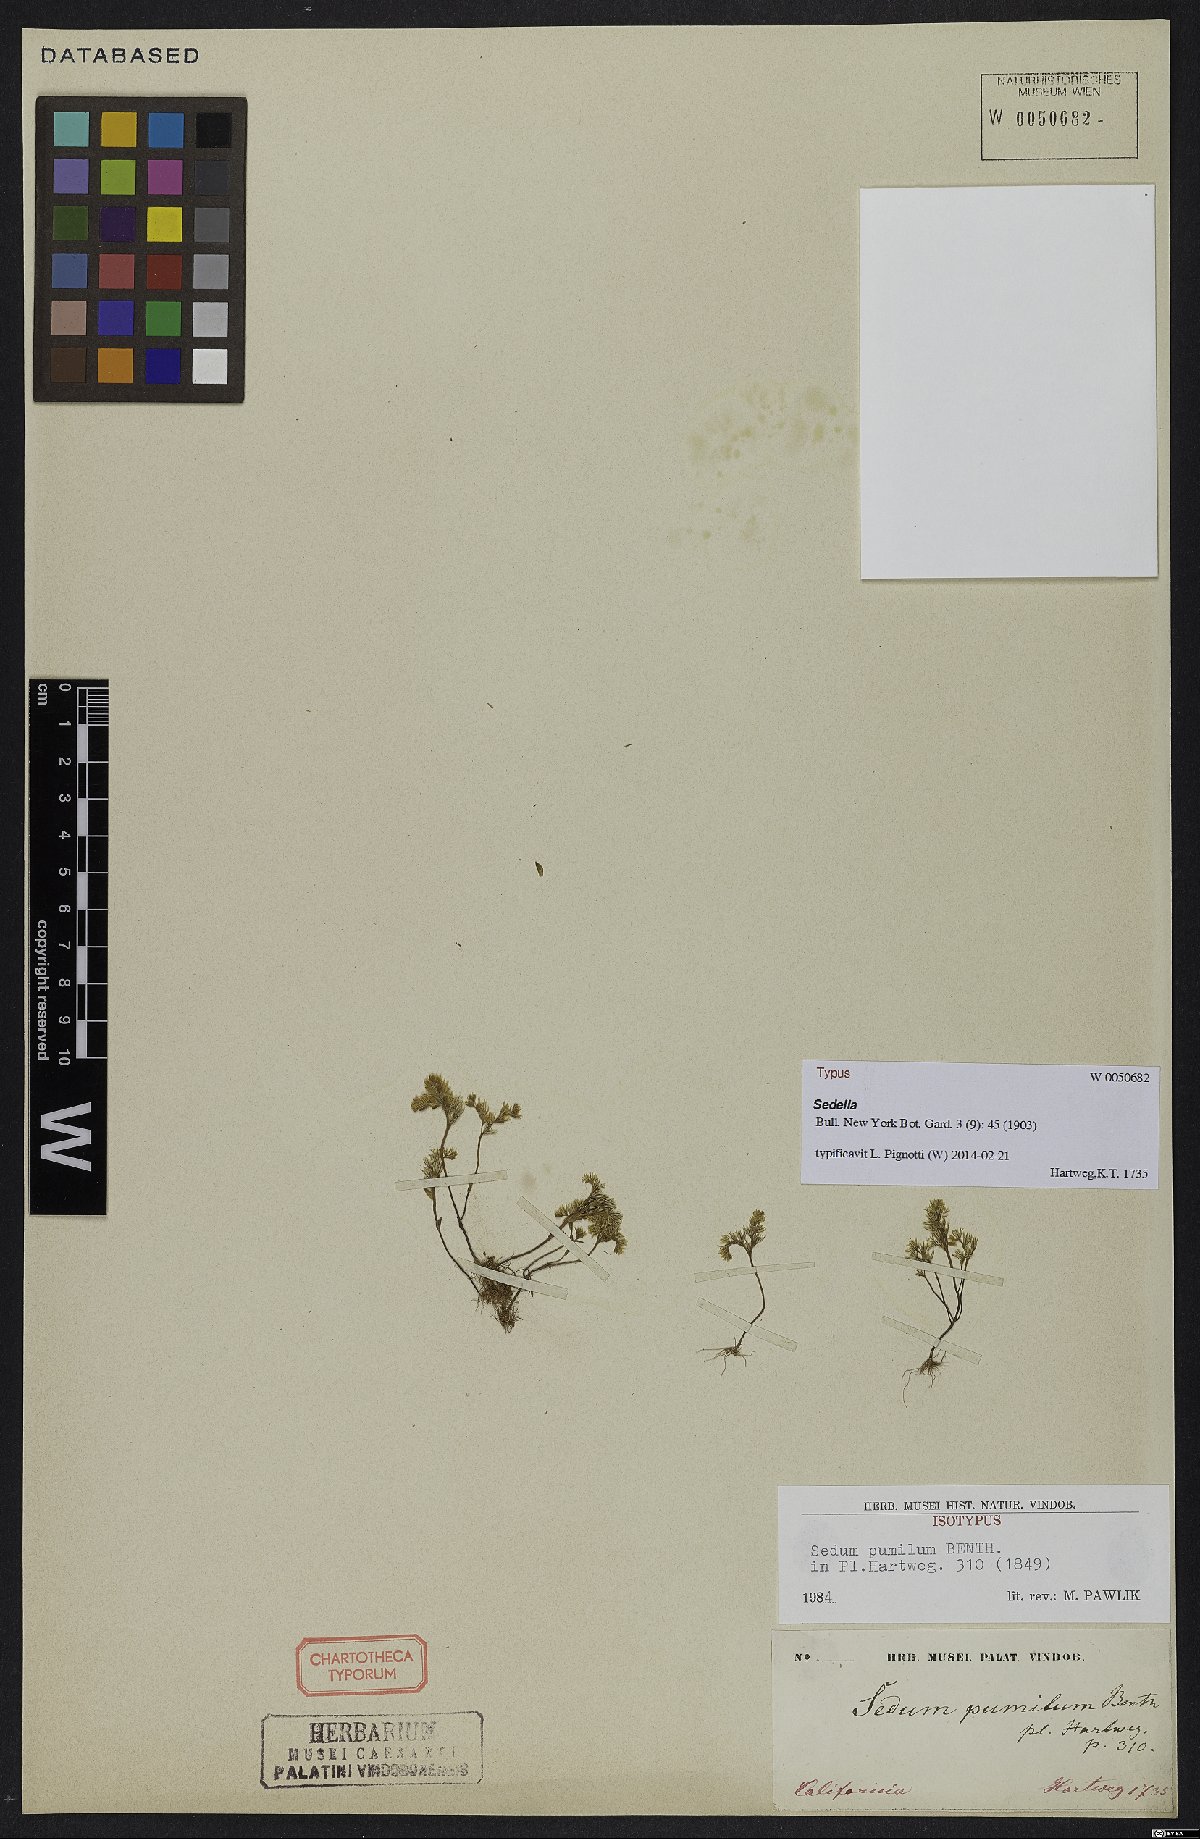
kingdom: Plantae
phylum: Tracheophyta
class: Magnoliopsida
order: Saxifragales
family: Crassulaceae
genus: Sedella
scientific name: Sedella pumila
